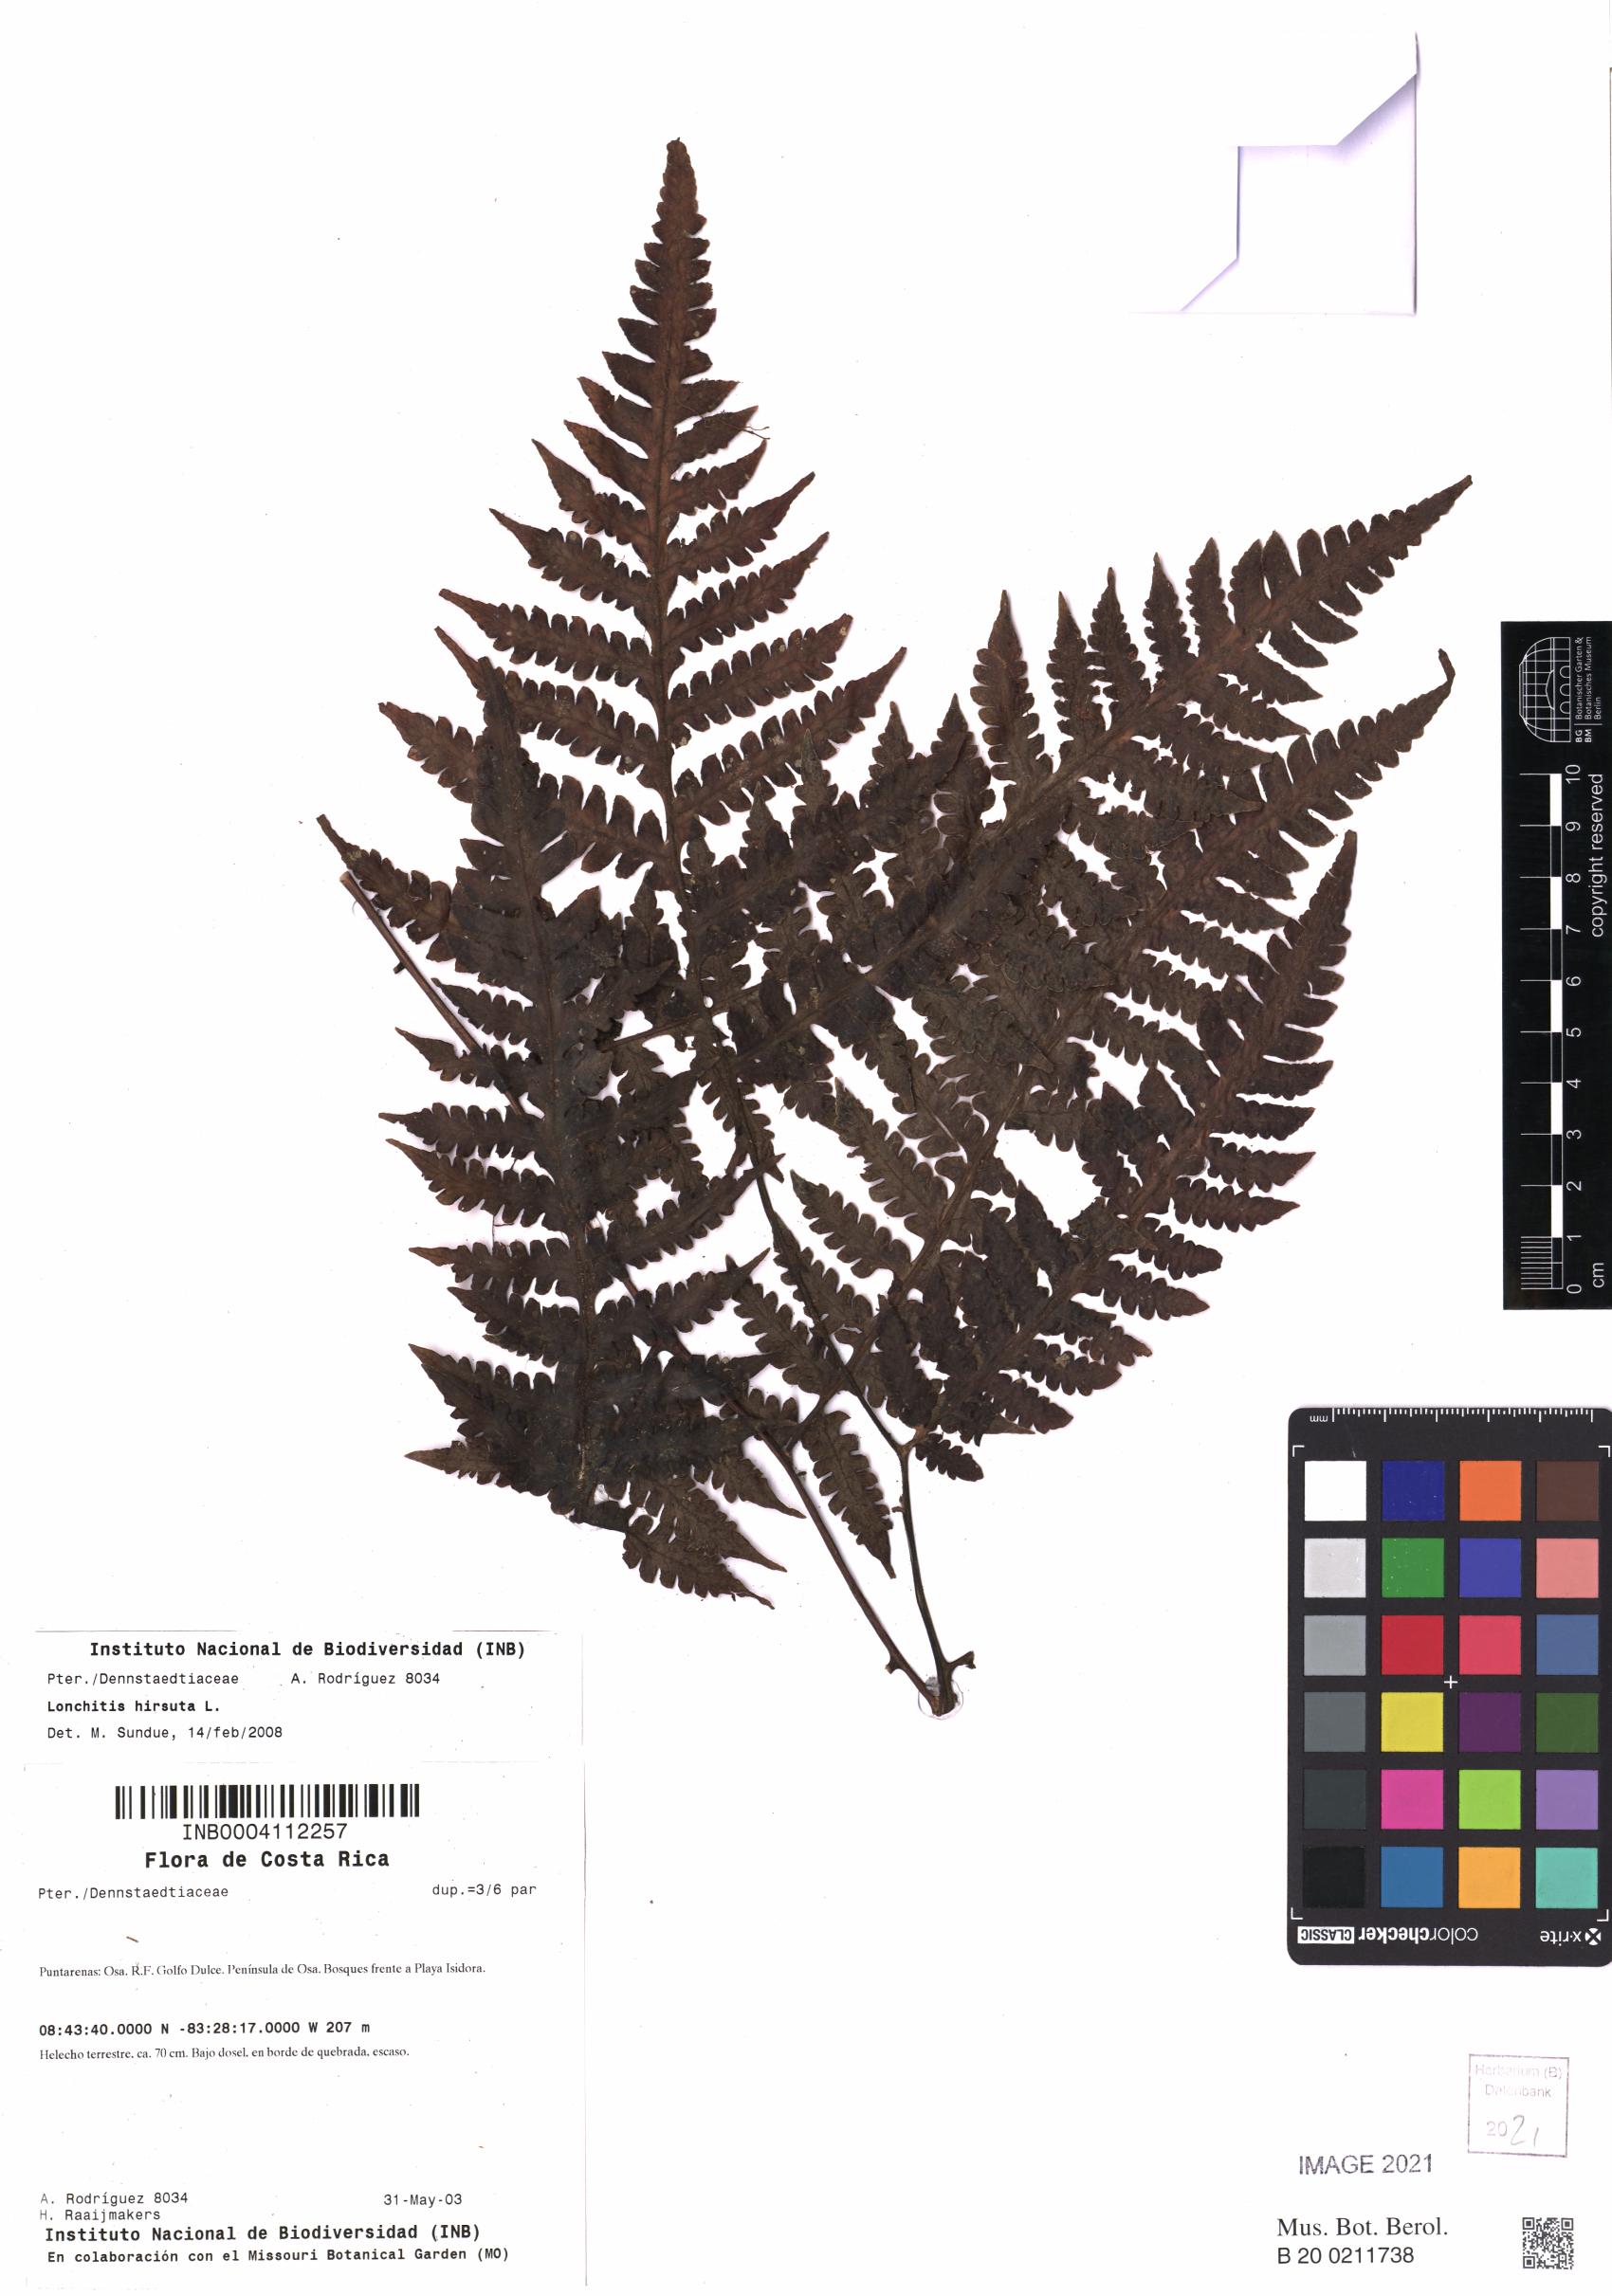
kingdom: Plantae
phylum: Tracheophyta
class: Polypodiopsida
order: Polypodiales
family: Lonchitidaceae
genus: Lonchitis
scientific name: Lonchitis hirsuta
